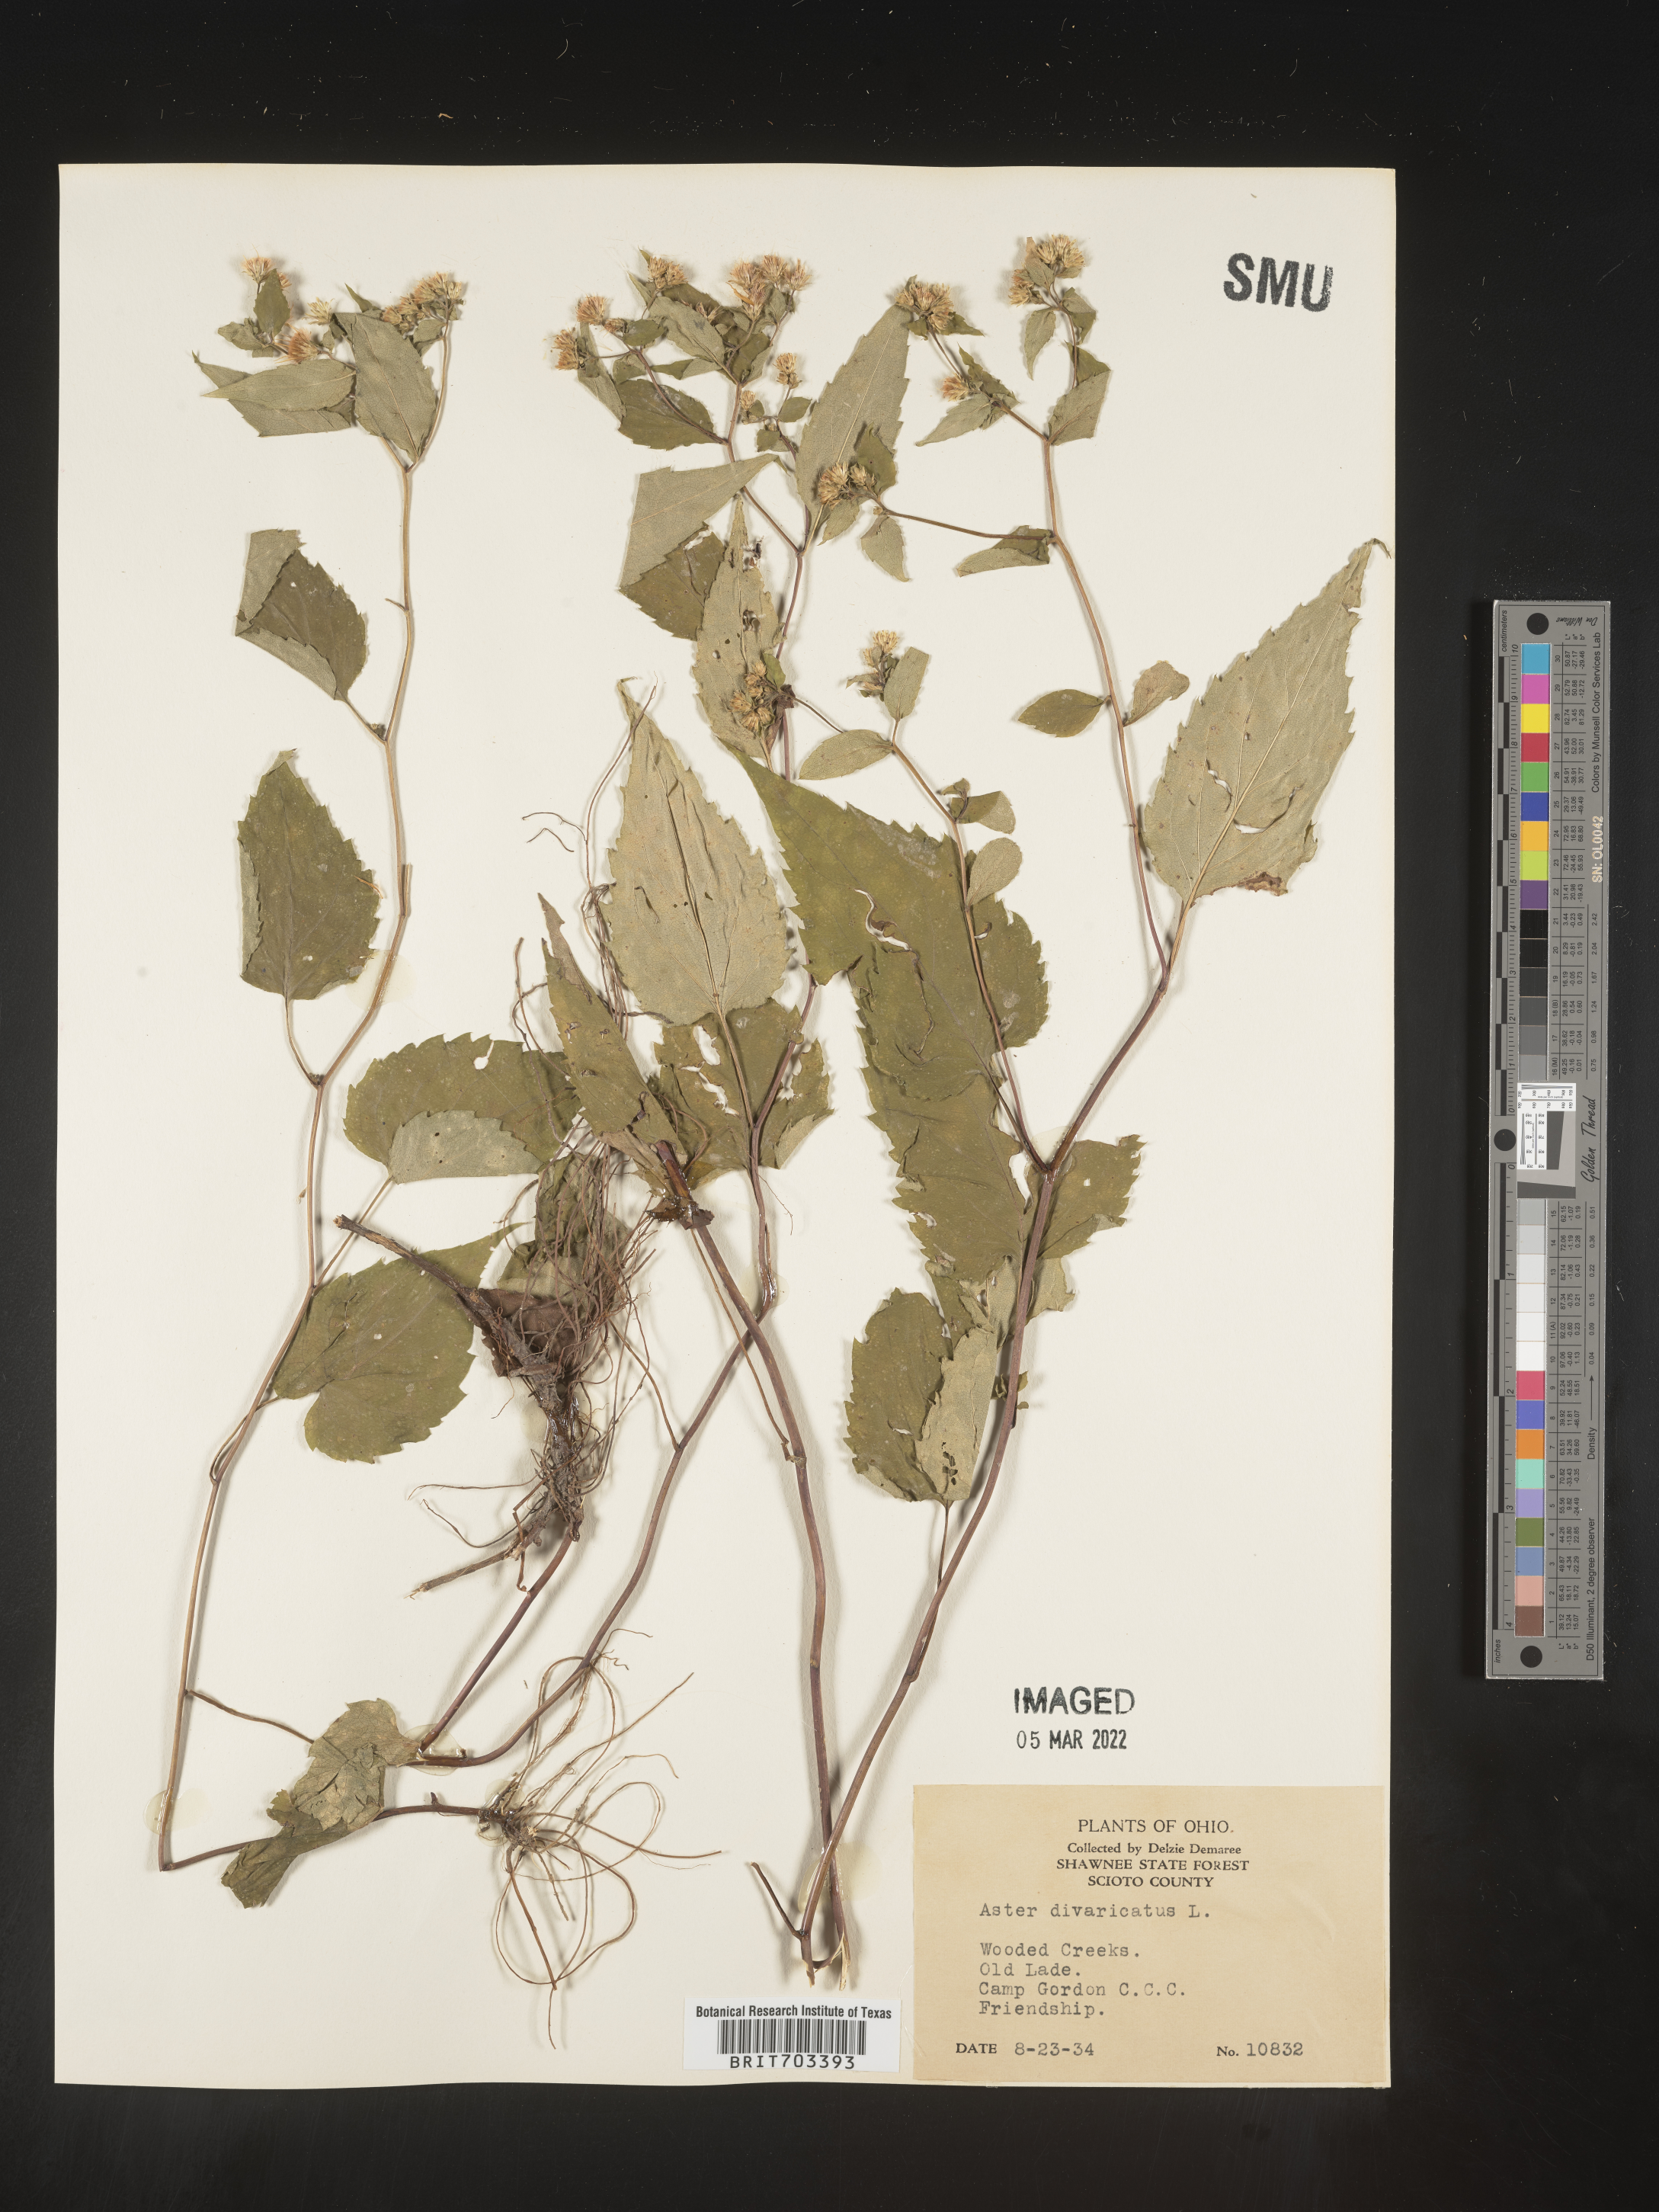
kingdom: Plantae
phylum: Tracheophyta
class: Magnoliopsida
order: Asterales
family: Asteraceae
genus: Eurybia
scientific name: Eurybia divaricata
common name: White wood aster
